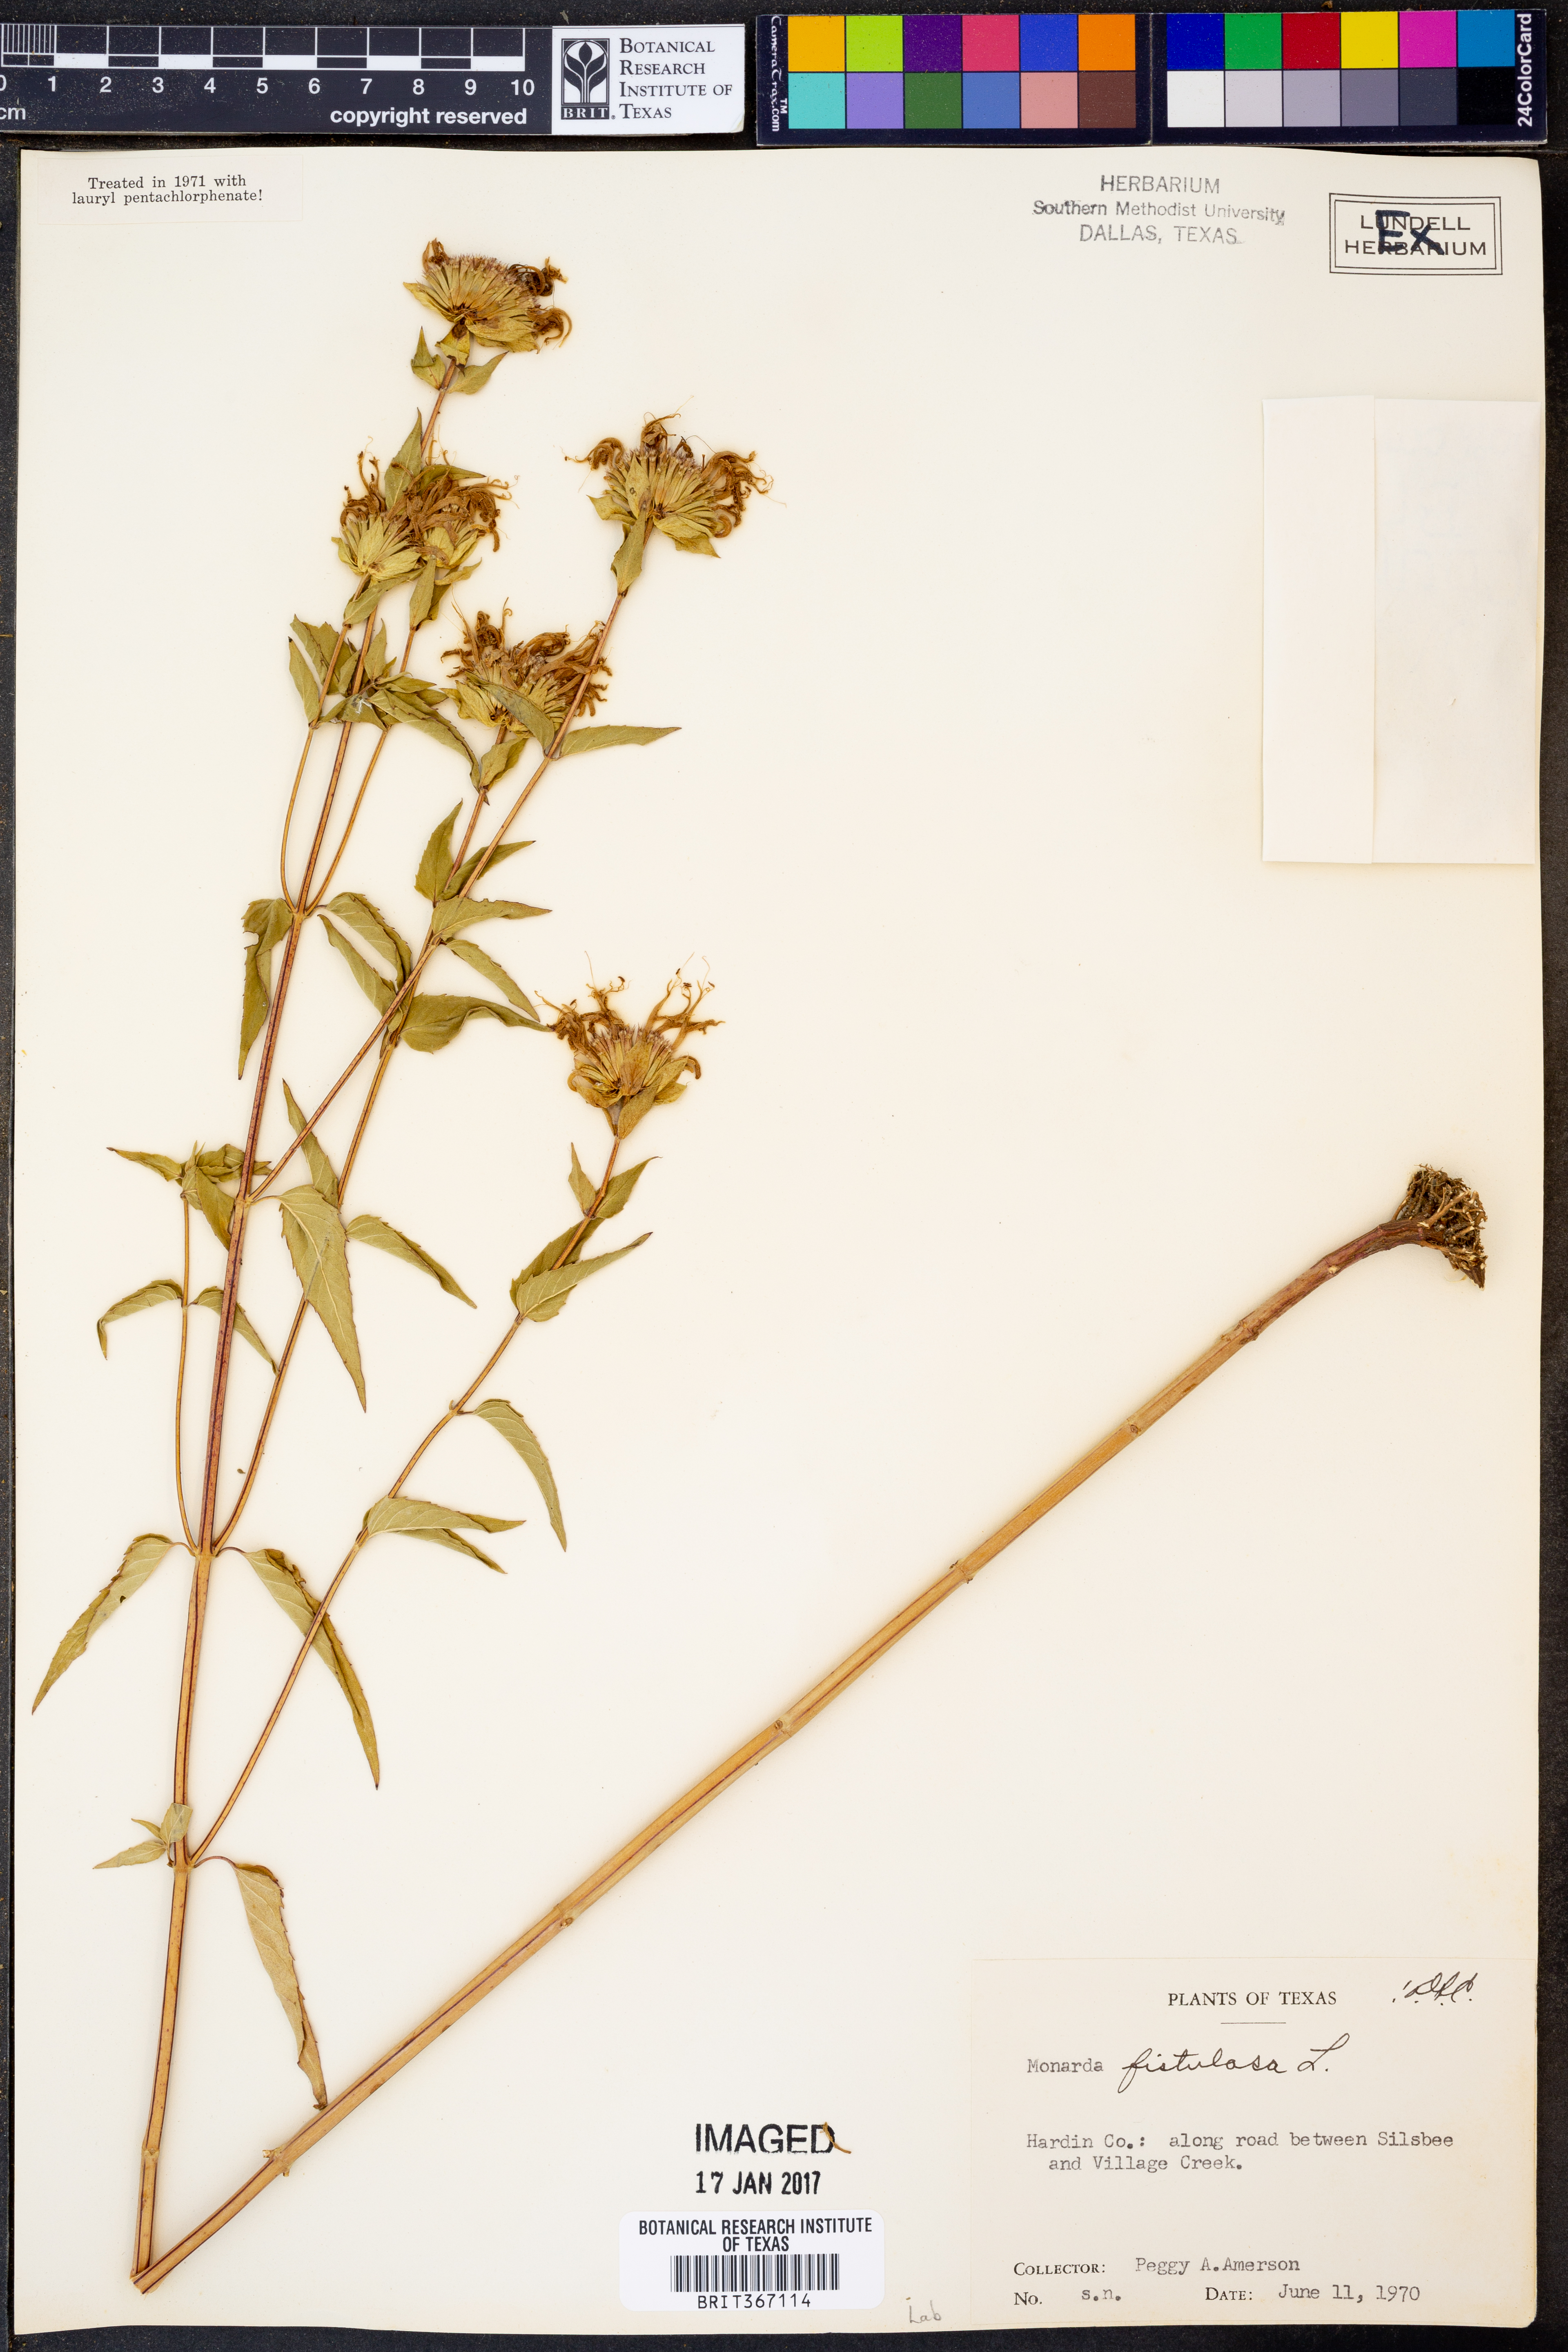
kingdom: Plantae
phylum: Tracheophyta
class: Magnoliopsida
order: Lamiales
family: Lamiaceae
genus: Monarda
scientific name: Monarda fistulosa
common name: Purple beebalm
